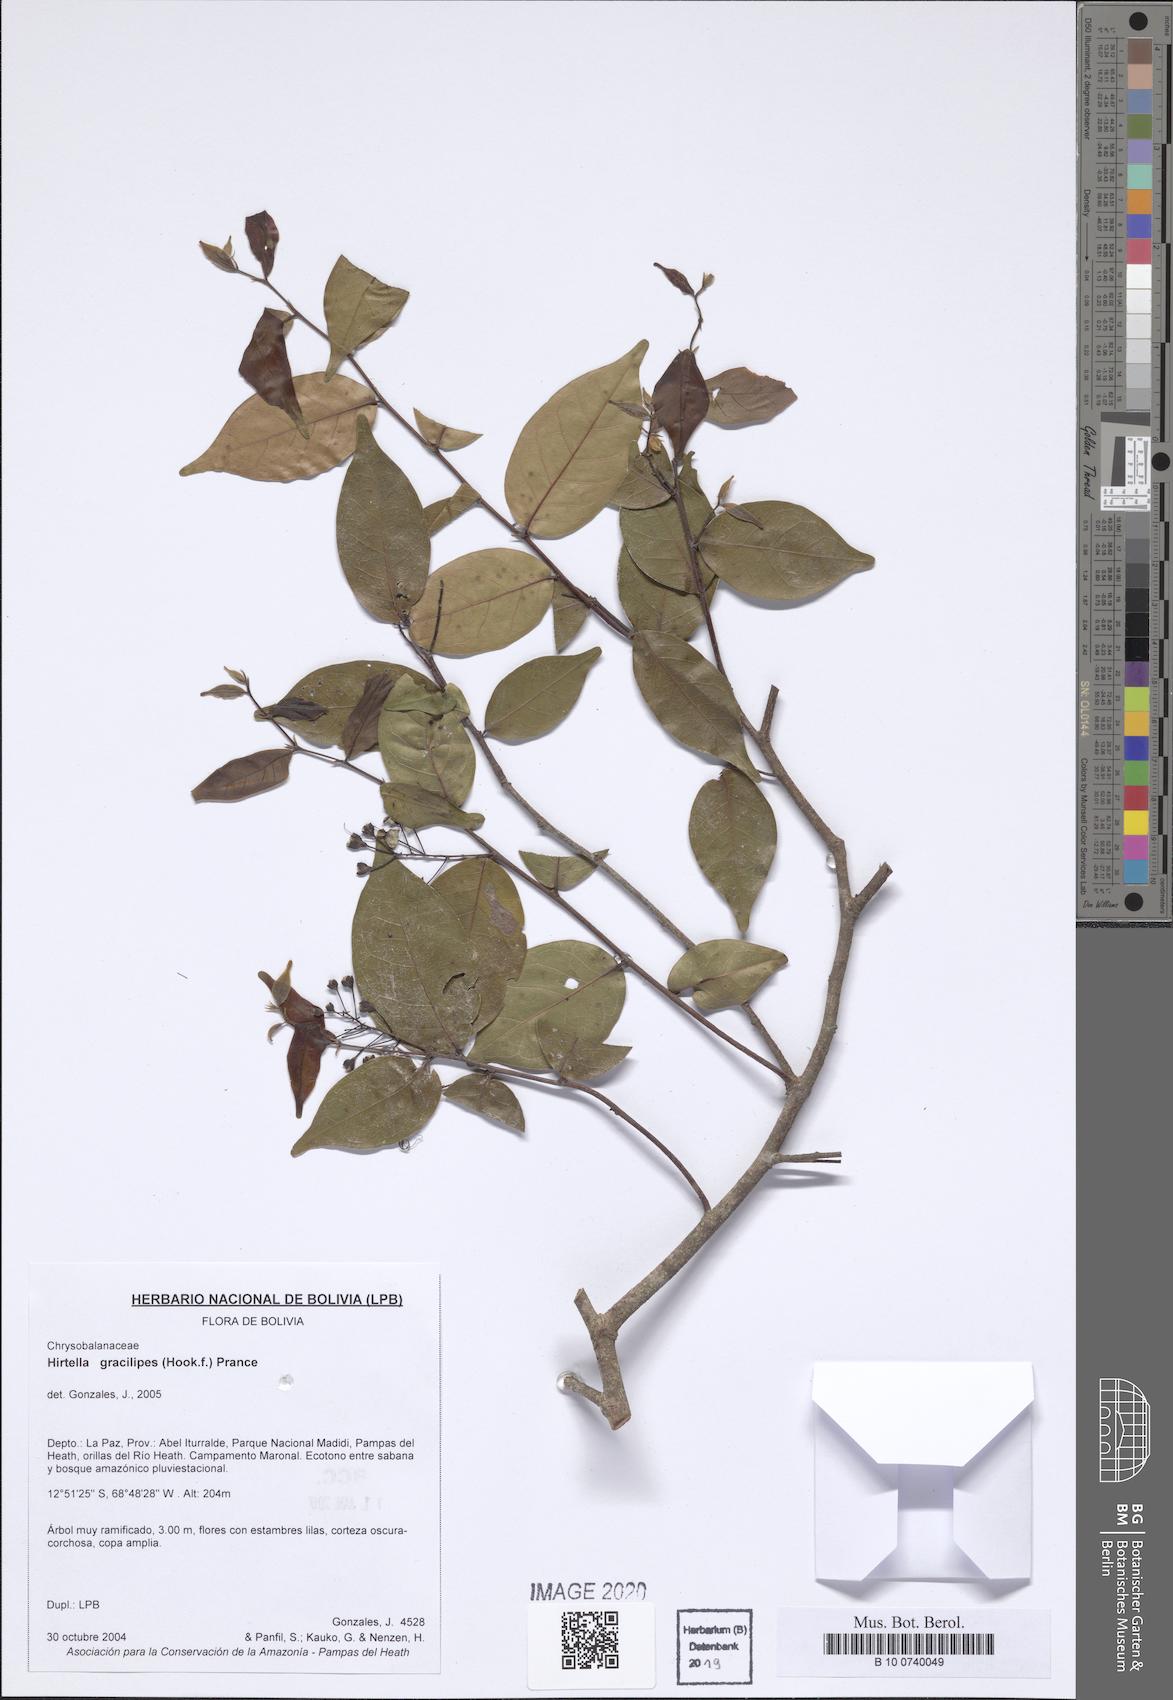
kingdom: Plantae
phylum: Tracheophyta
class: Magnoliopsida
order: Malpighiales
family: Chrysobalanaceae
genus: Hirtella
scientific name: Hirtella gracilipes
